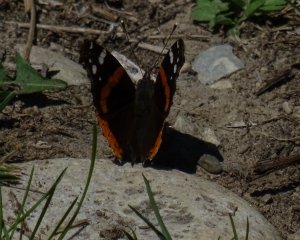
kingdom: Animalia
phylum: Arthropoda
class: Insecta
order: Lepidoptera
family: Nymphalidae
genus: Vanessa
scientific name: Vanessa atalanta
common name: Red Admiral
